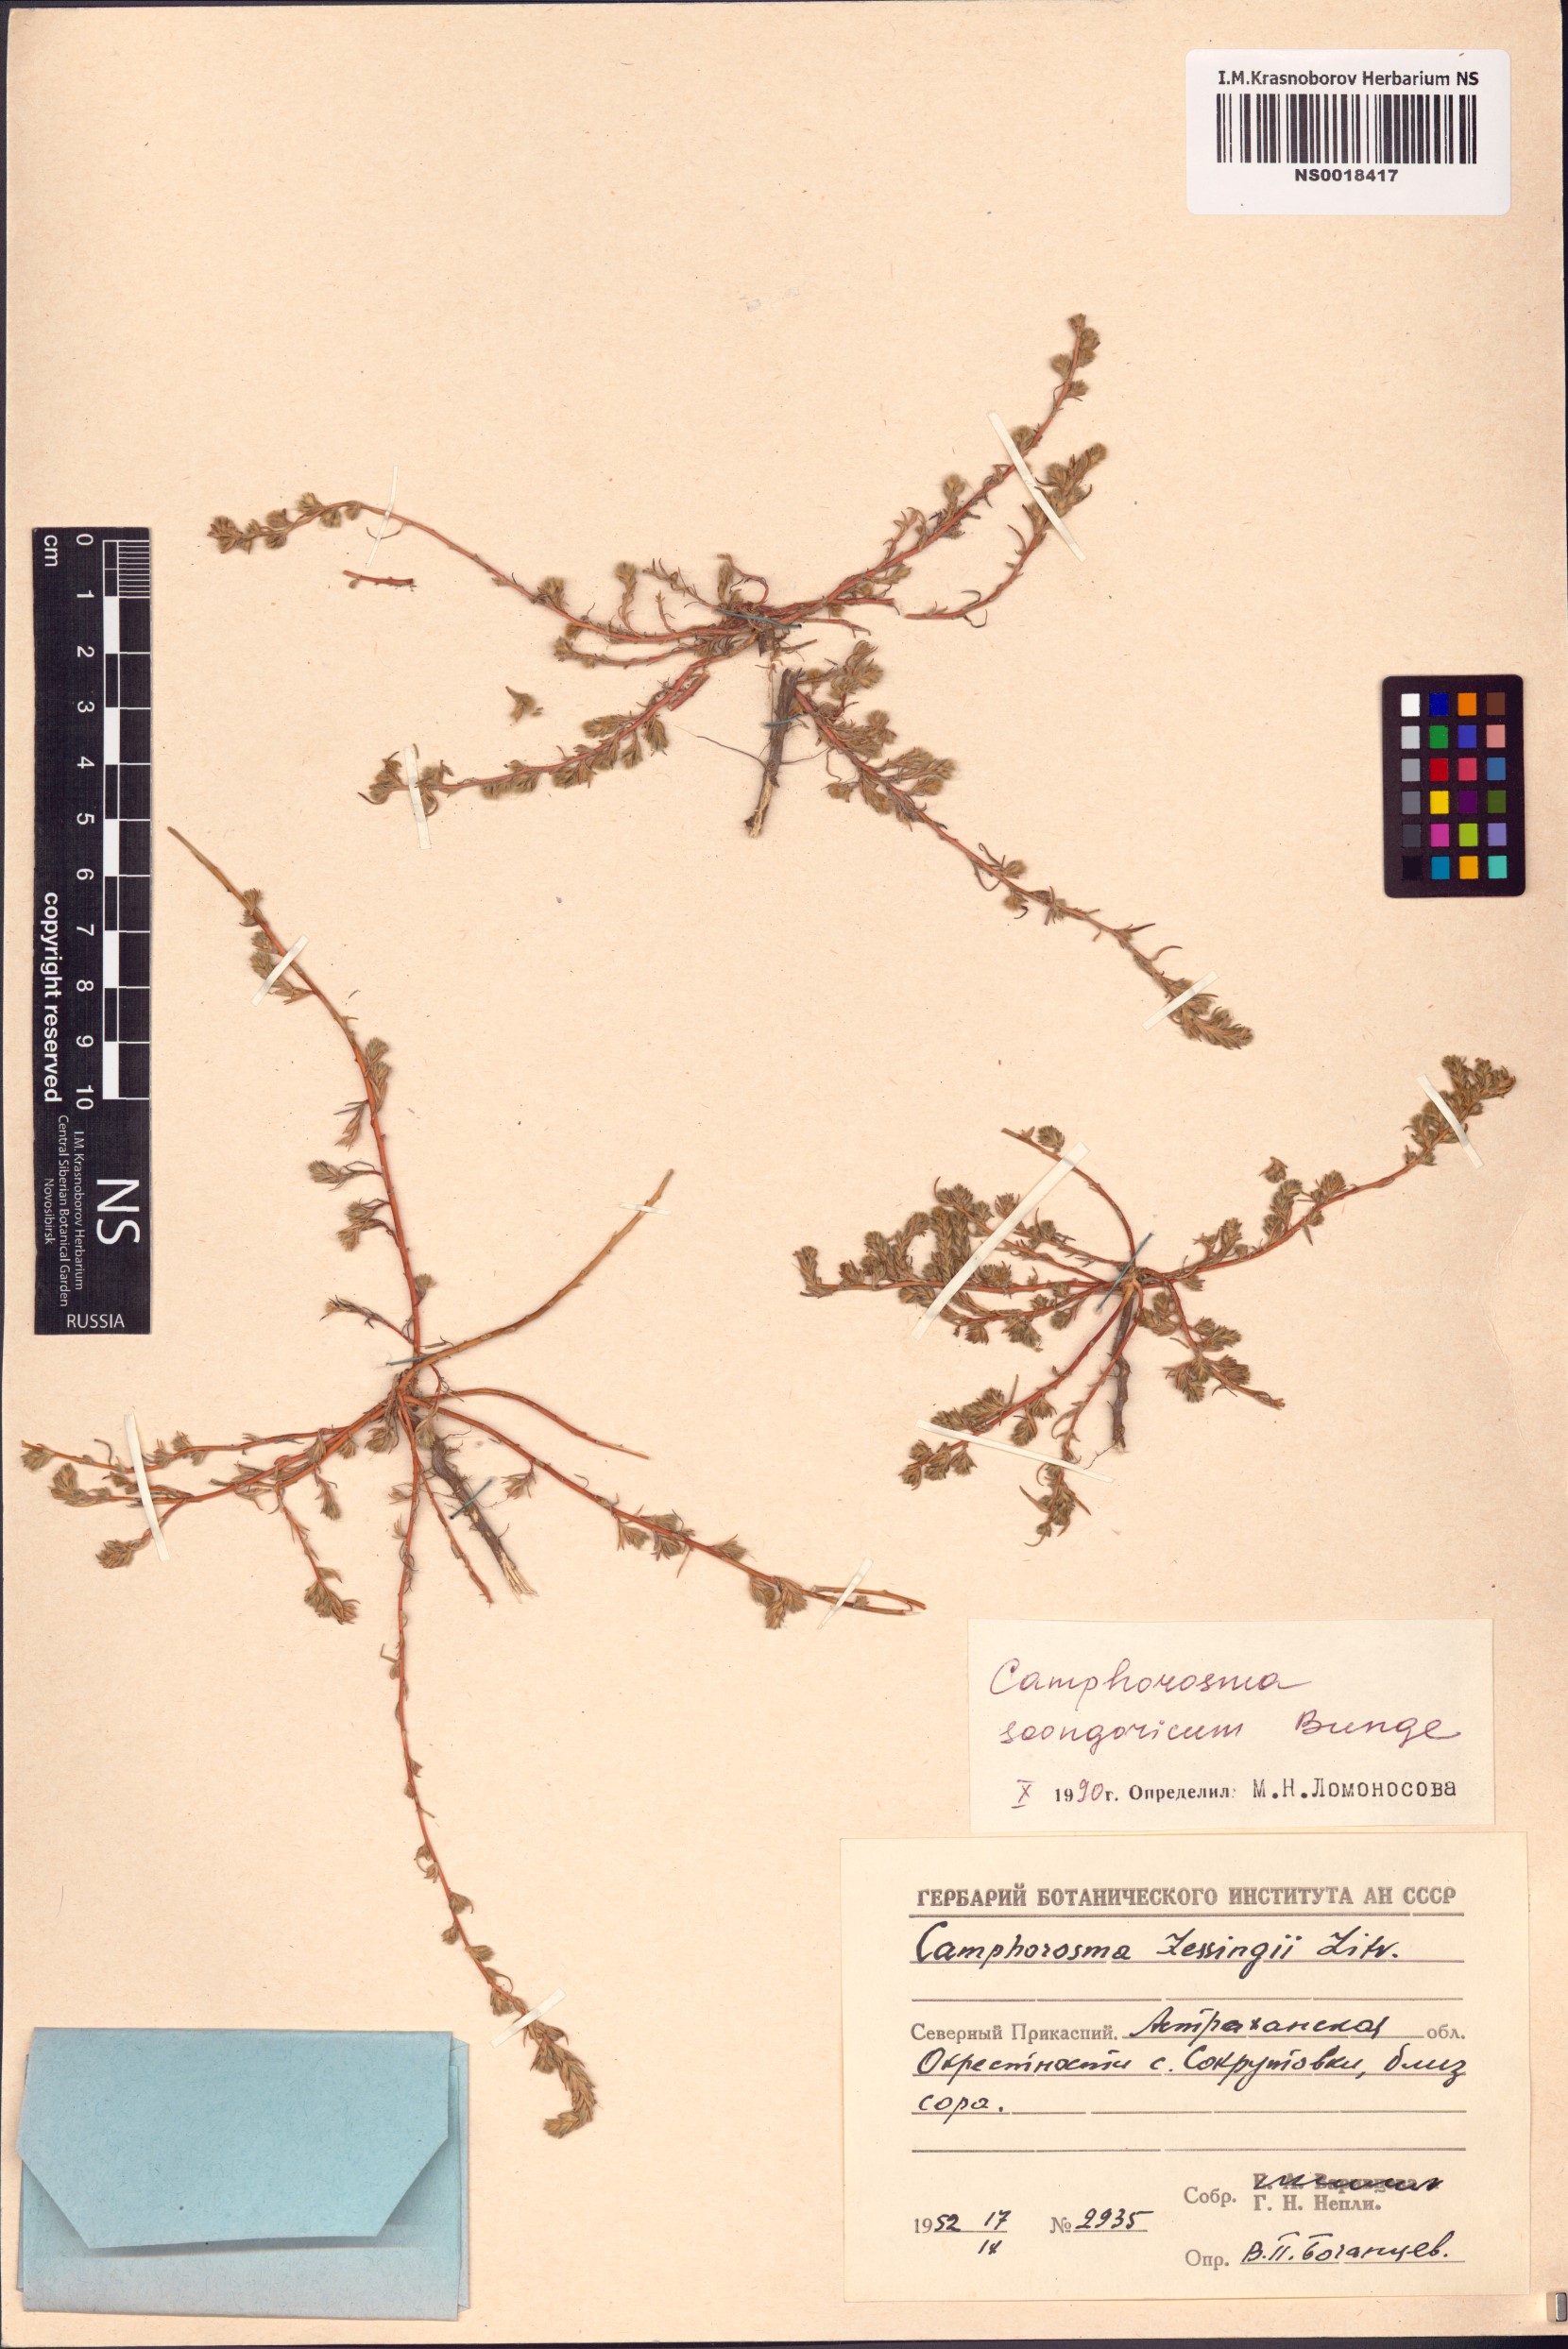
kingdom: Plantae
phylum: Tracheophyta
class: Magnoliopsida
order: Caryophyllales
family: Amaranthaceae
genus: Camphorosma
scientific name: Camphorosma songorica
